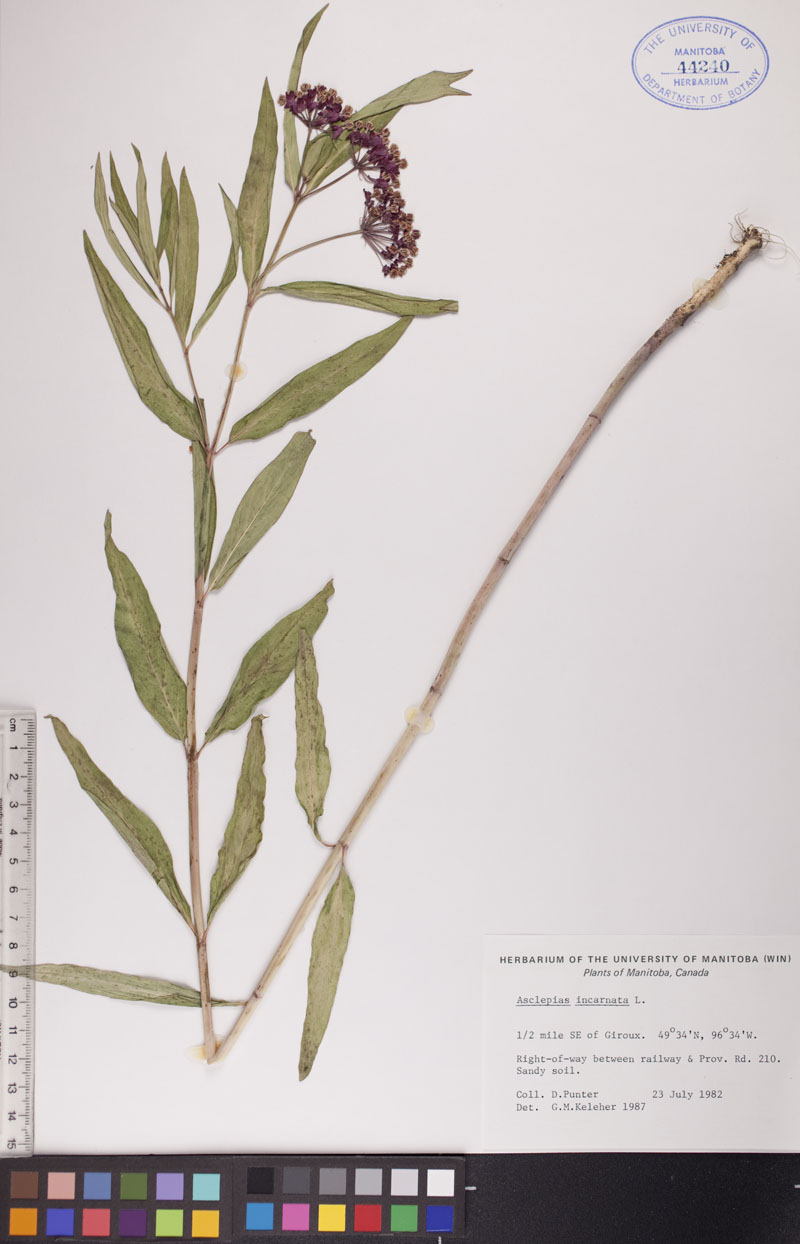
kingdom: Plantae
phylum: Tracheophyta
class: Magnoliopsida
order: Gentianales
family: Apocynaceae
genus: Asclepias
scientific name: Asclepias incarnata
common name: Swamp milkweed
